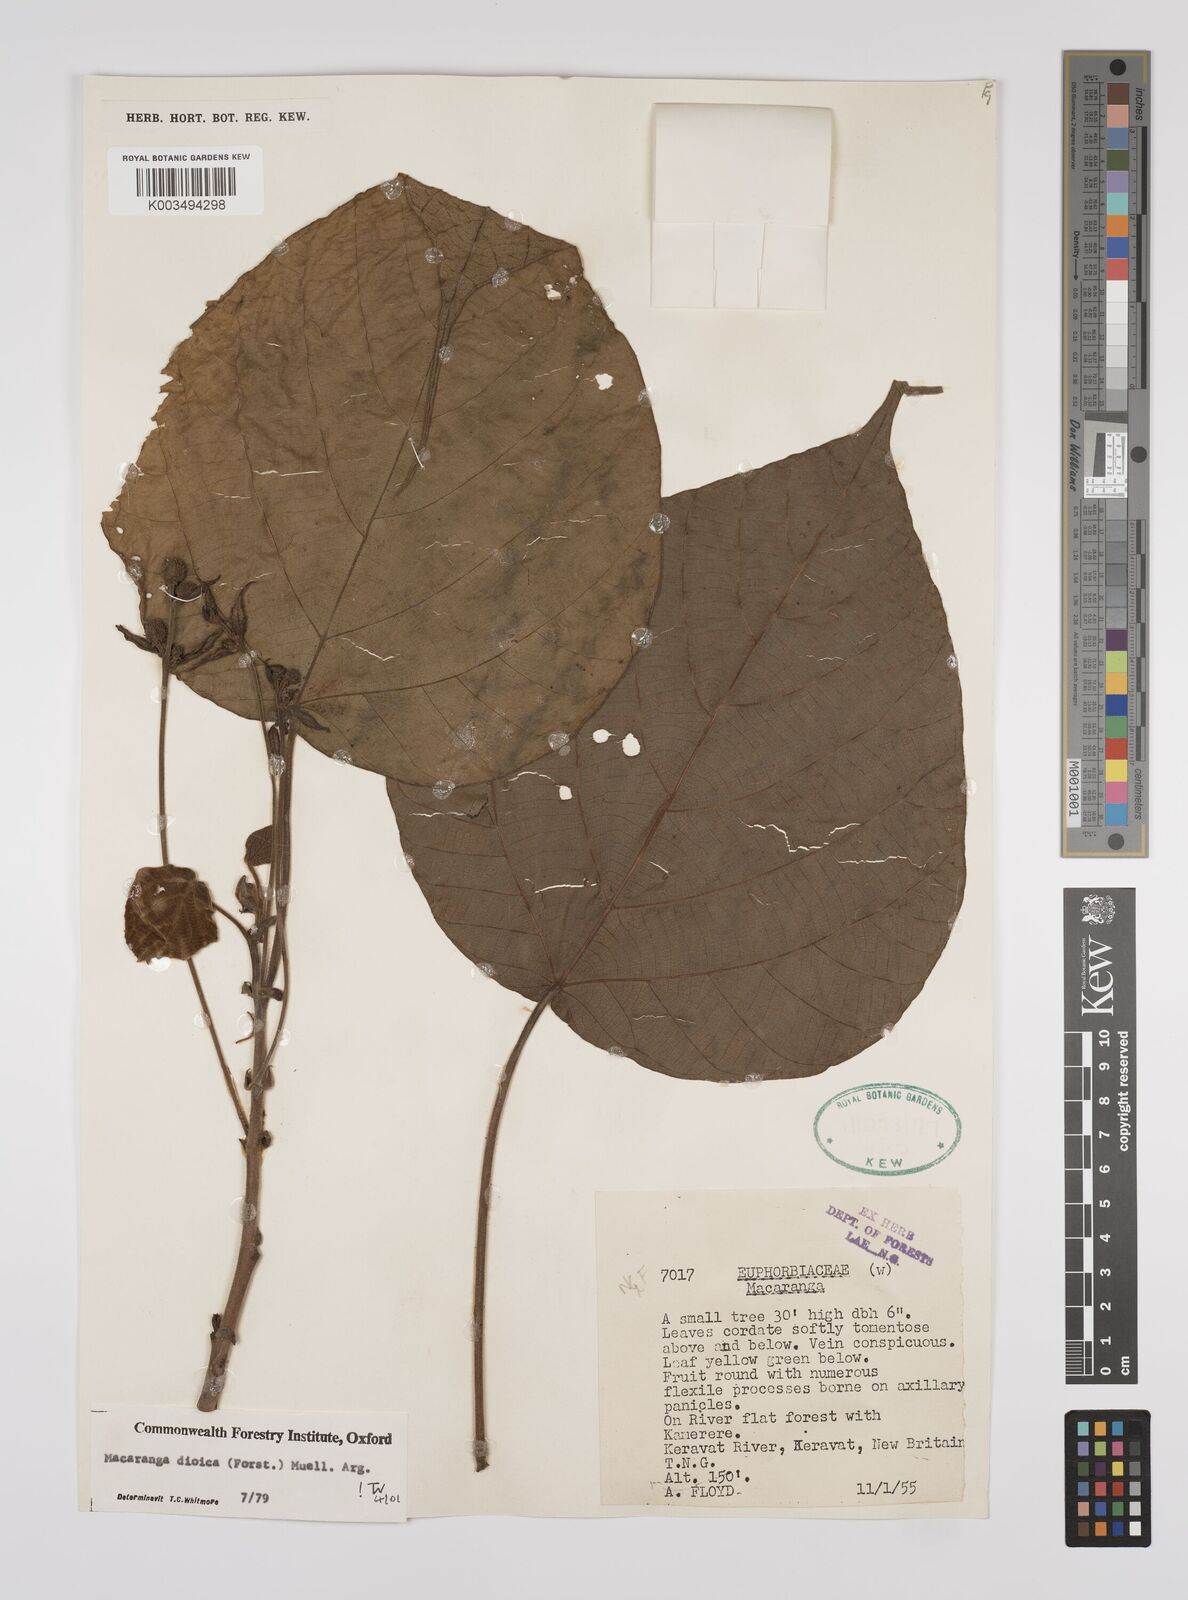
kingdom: Plantae
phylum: Tracheophyta
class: Magnoliopsida
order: Malpighiales
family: Euphorbiaceae
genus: Macaranga
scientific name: Macaranga dioica
